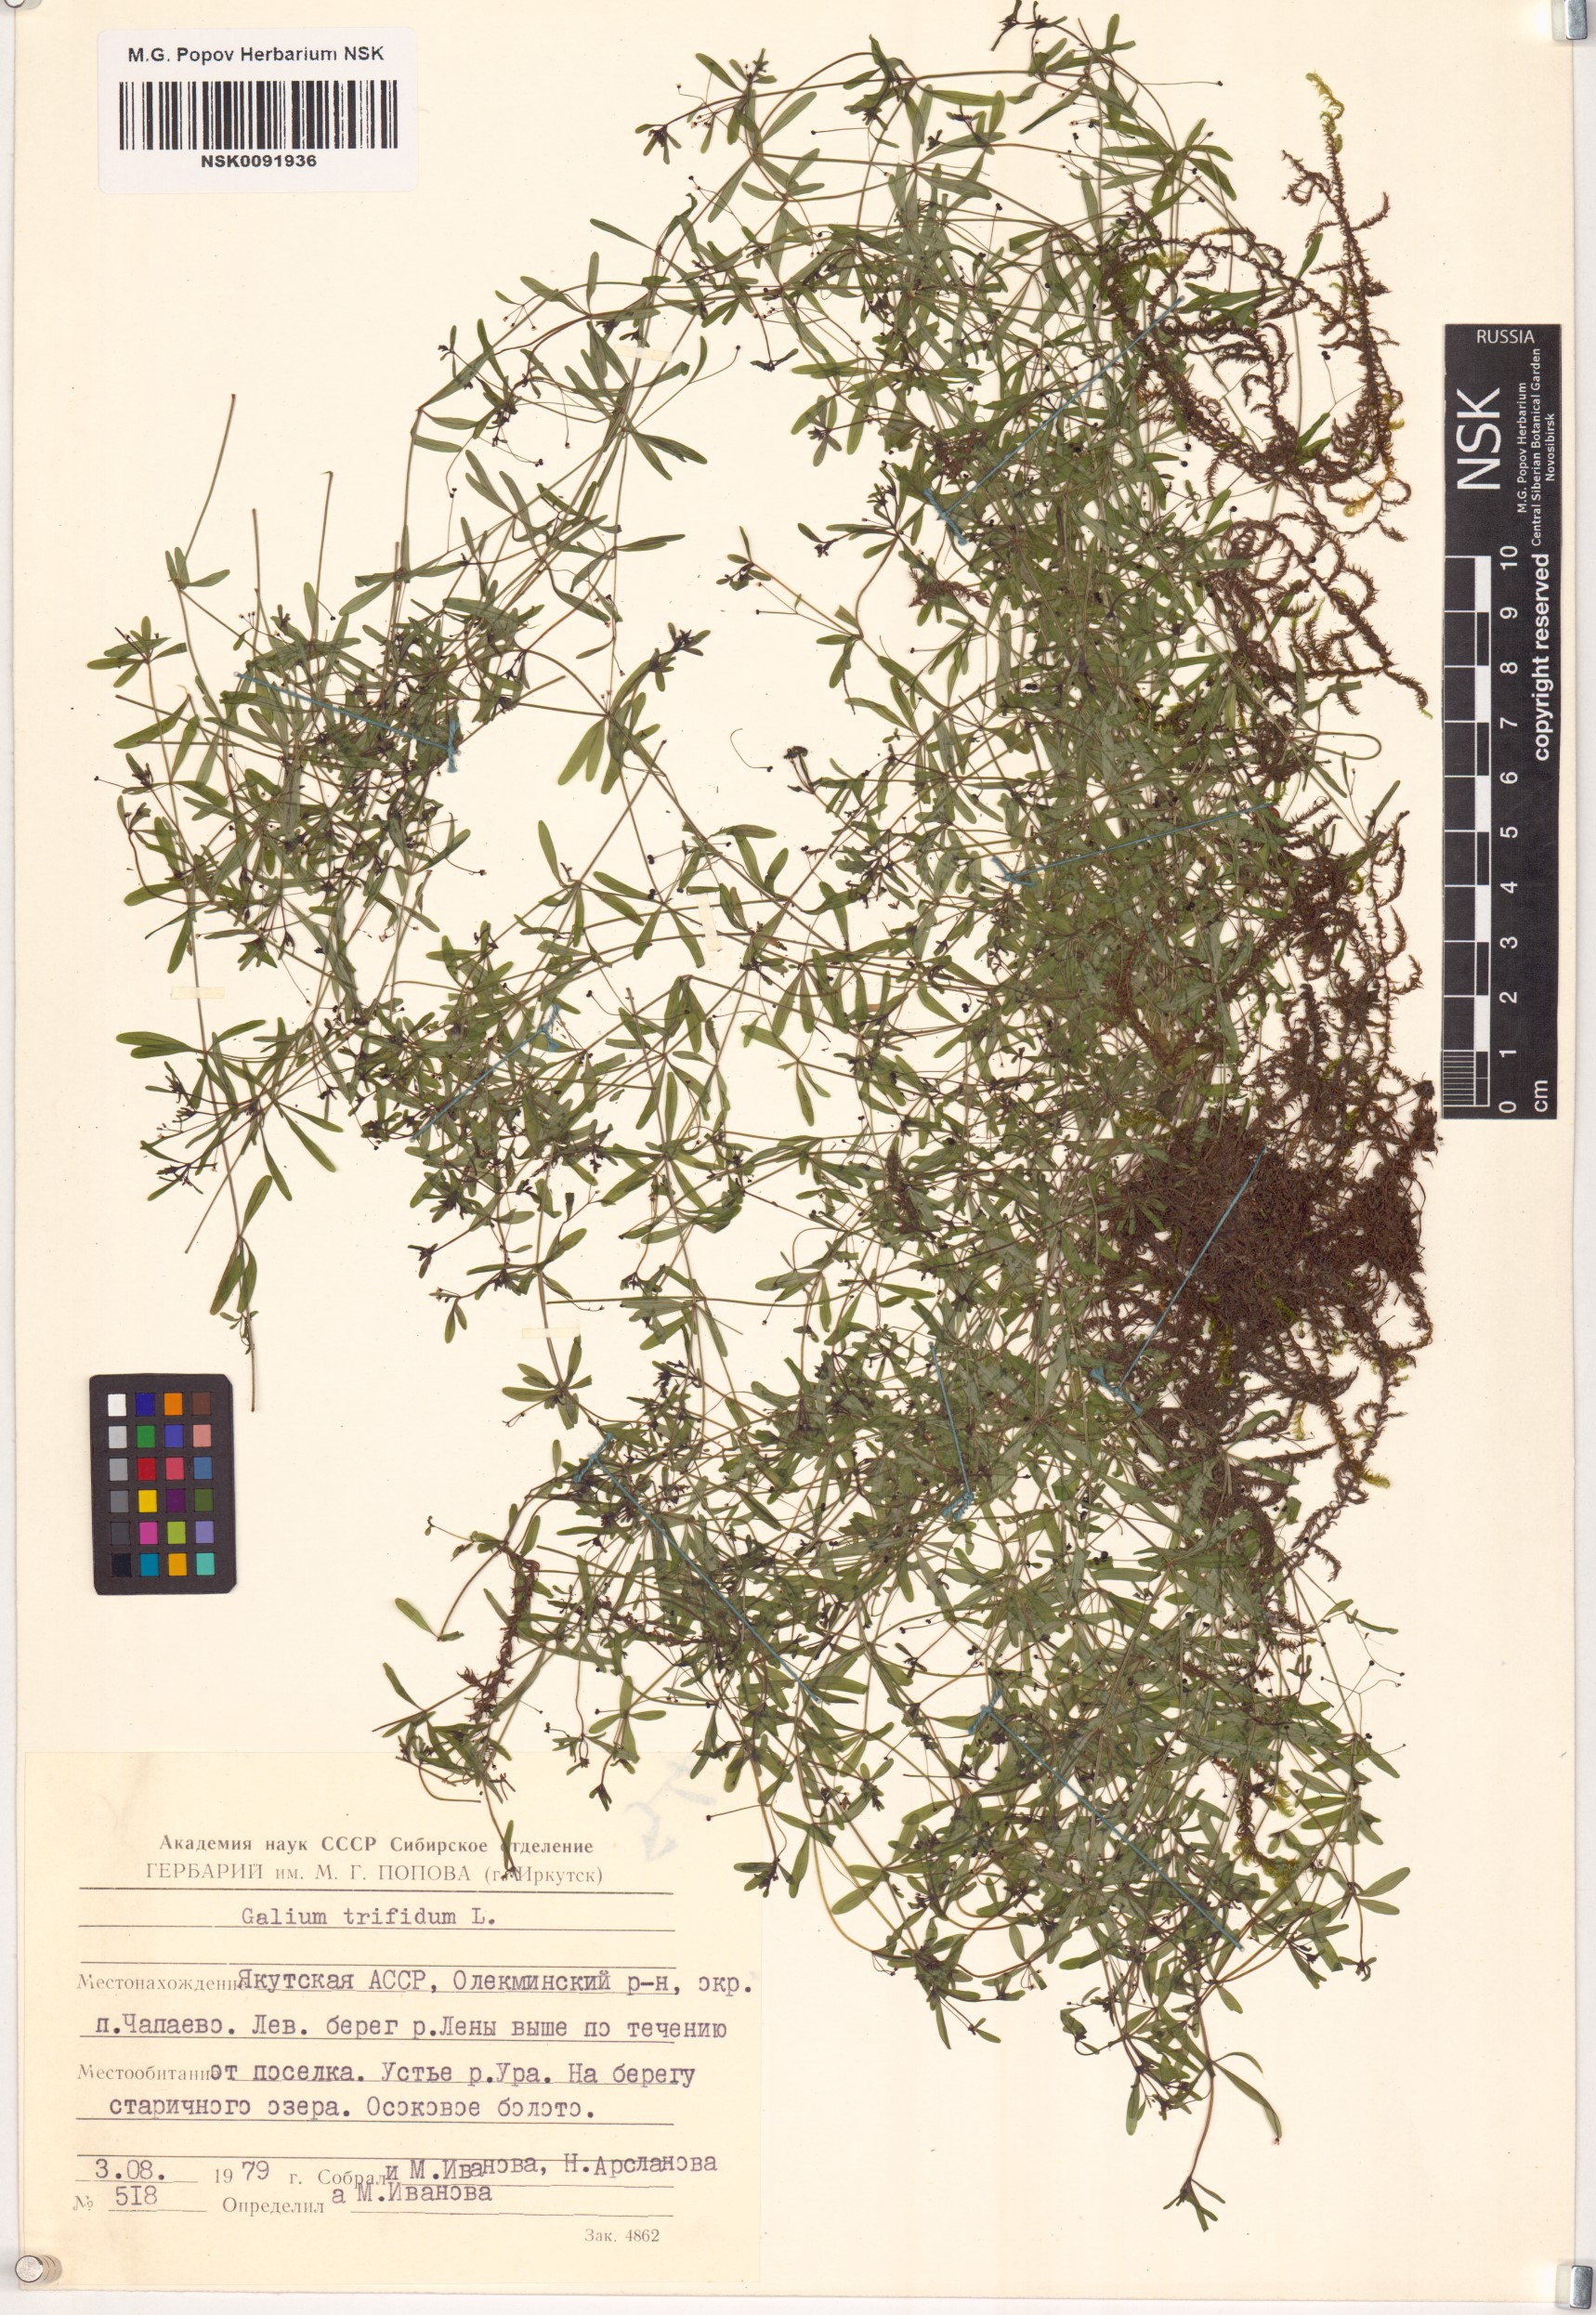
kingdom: Plantae
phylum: Tracheophyta
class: Magnoliopsida
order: Gentianales
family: Rubiaceae
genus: Galium
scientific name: Galium trifidum
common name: Small bedstraw
